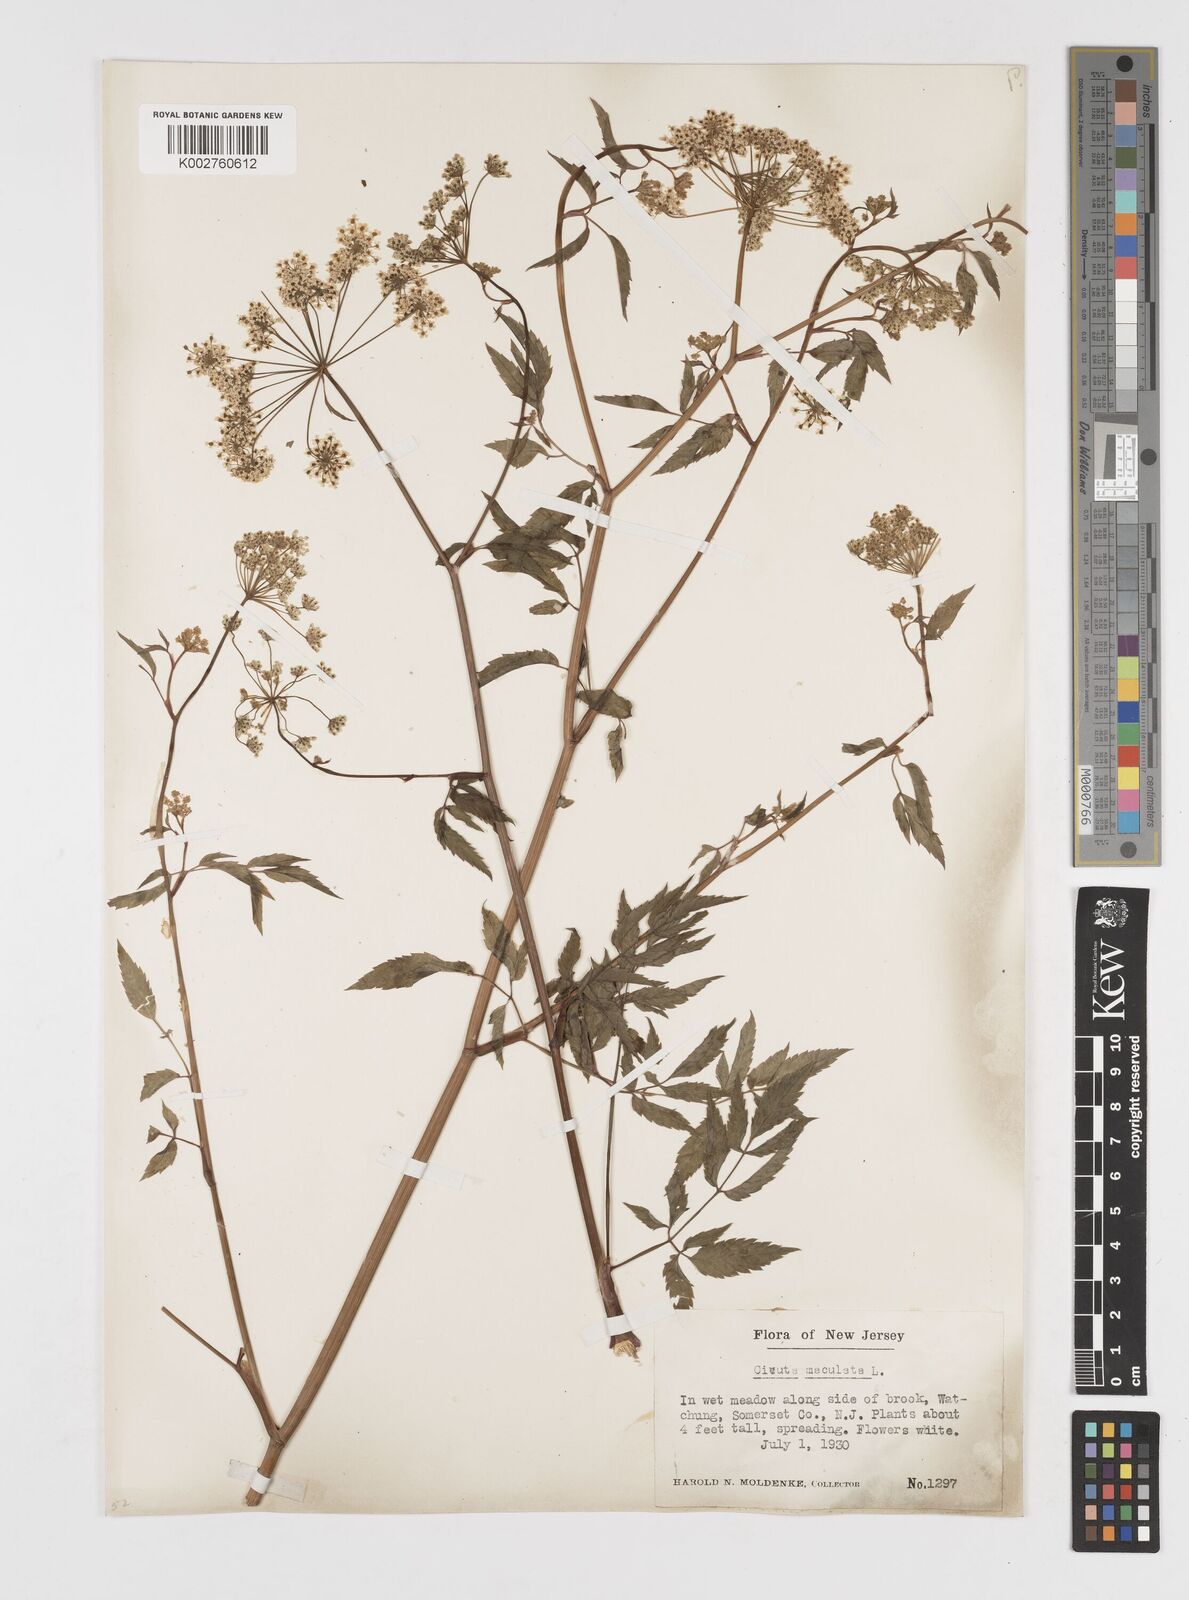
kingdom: Plantae
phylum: Tracheophyta
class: Magnoliopsida
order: Apiales
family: Apiaceae
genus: Cicuta
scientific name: Cicuta maculata
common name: Spotted cowbane
